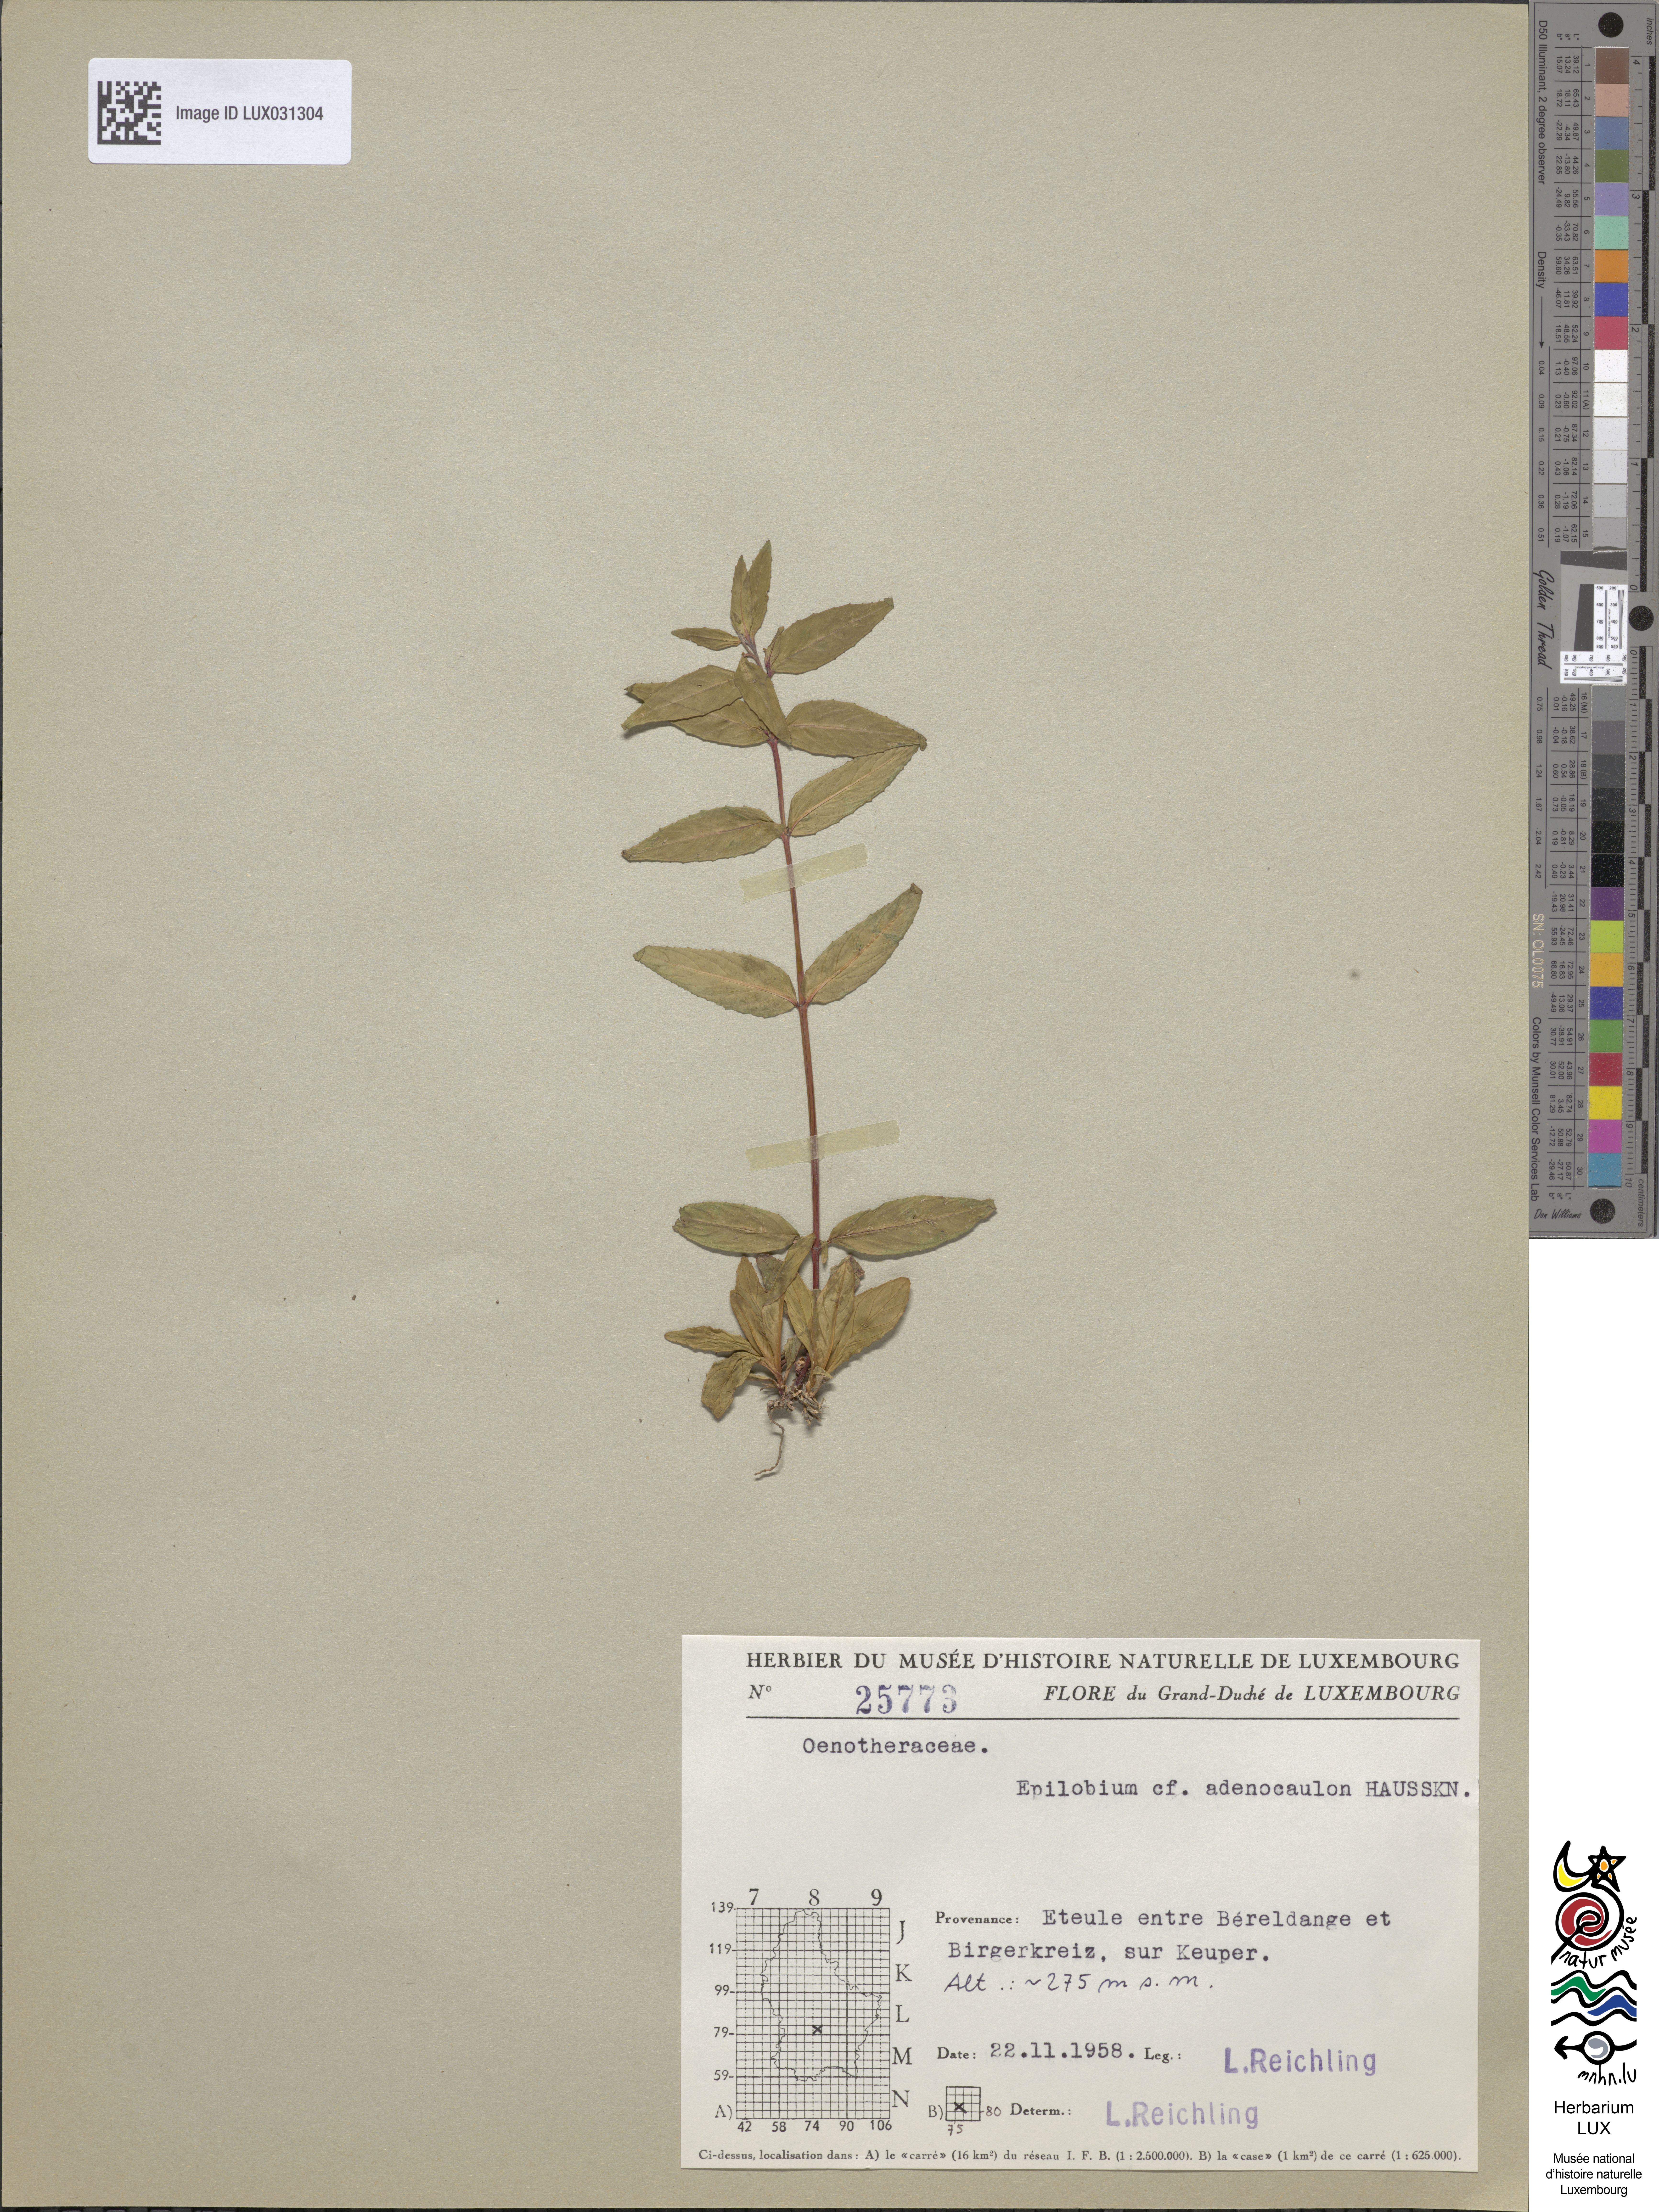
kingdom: Plantae
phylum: Tracheophyta
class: Magnoliopsida
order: Myrtales
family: Onagraceae
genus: Epilobium
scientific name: Epilobium ciliatum
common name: American willowherb
